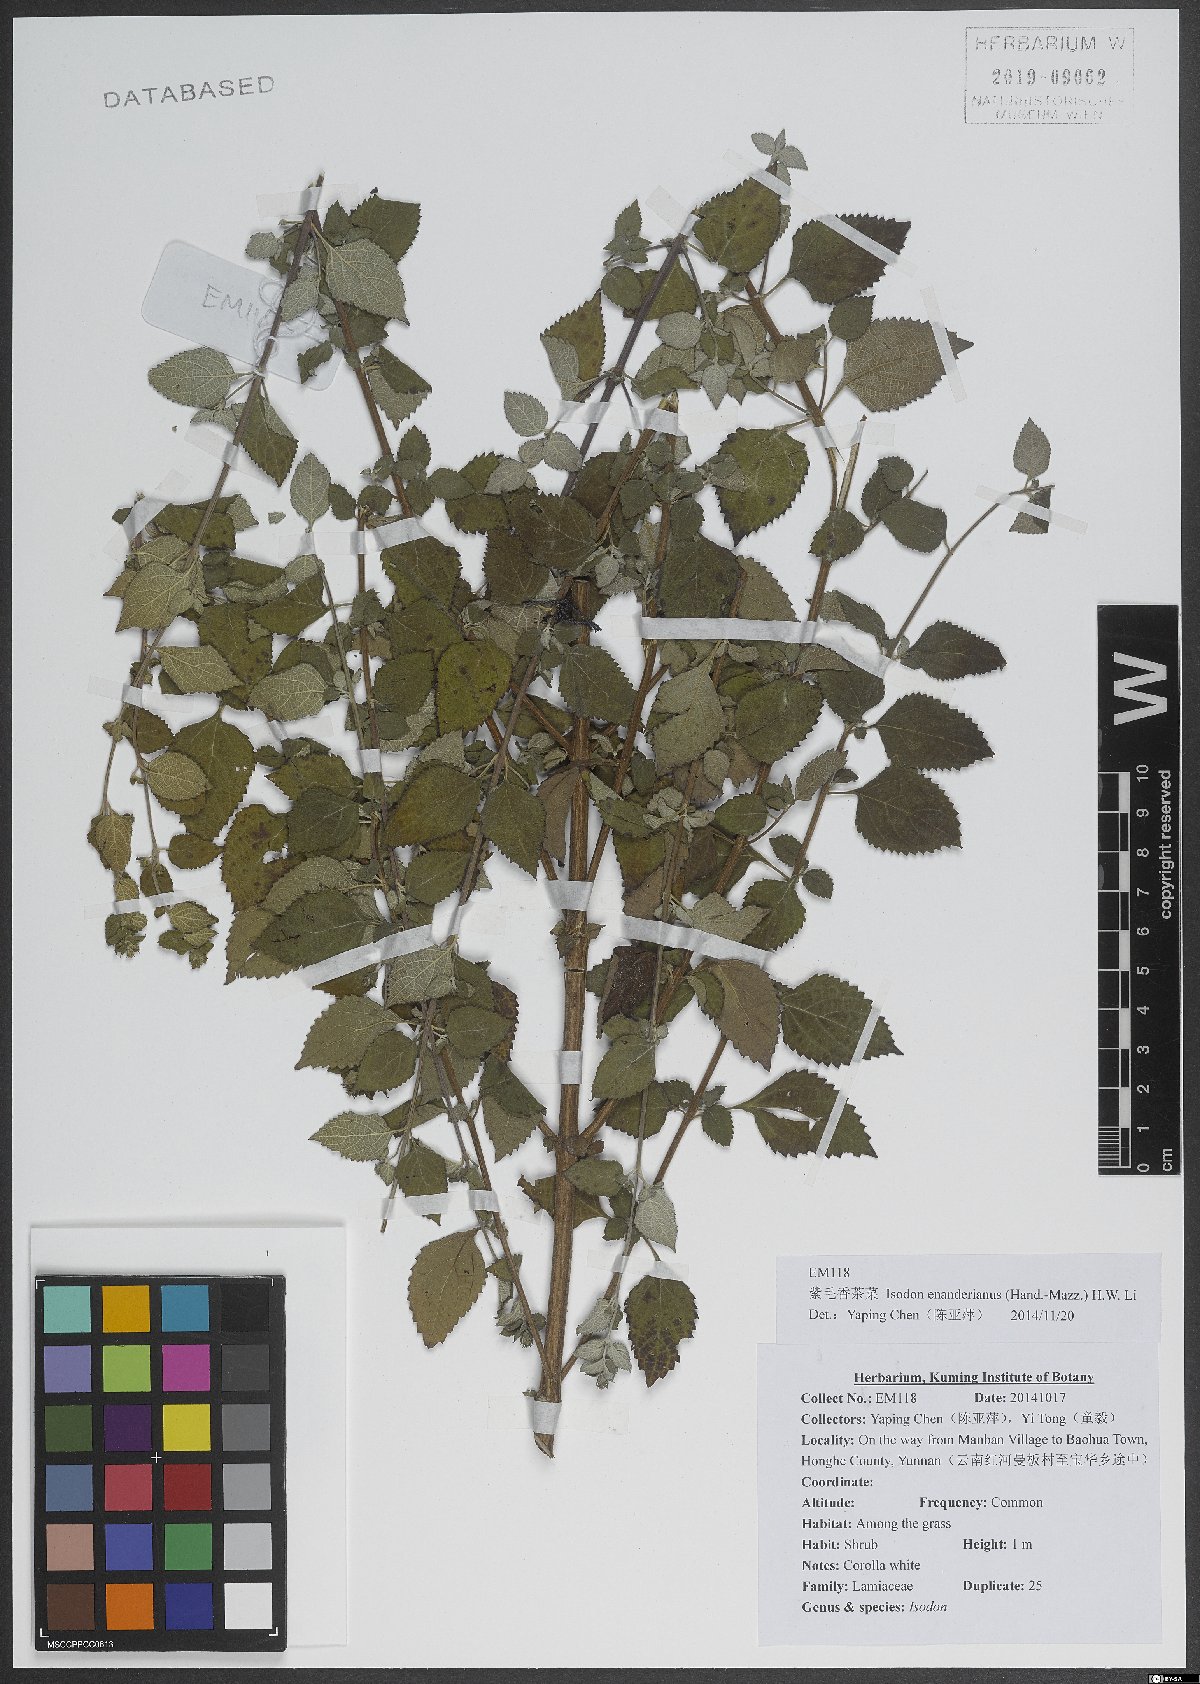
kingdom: Plantae
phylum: Tracheophyta
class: Magnoliopsida
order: Lamiales
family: Lamiaceae
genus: Isodon
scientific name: Isodon enanderianus
